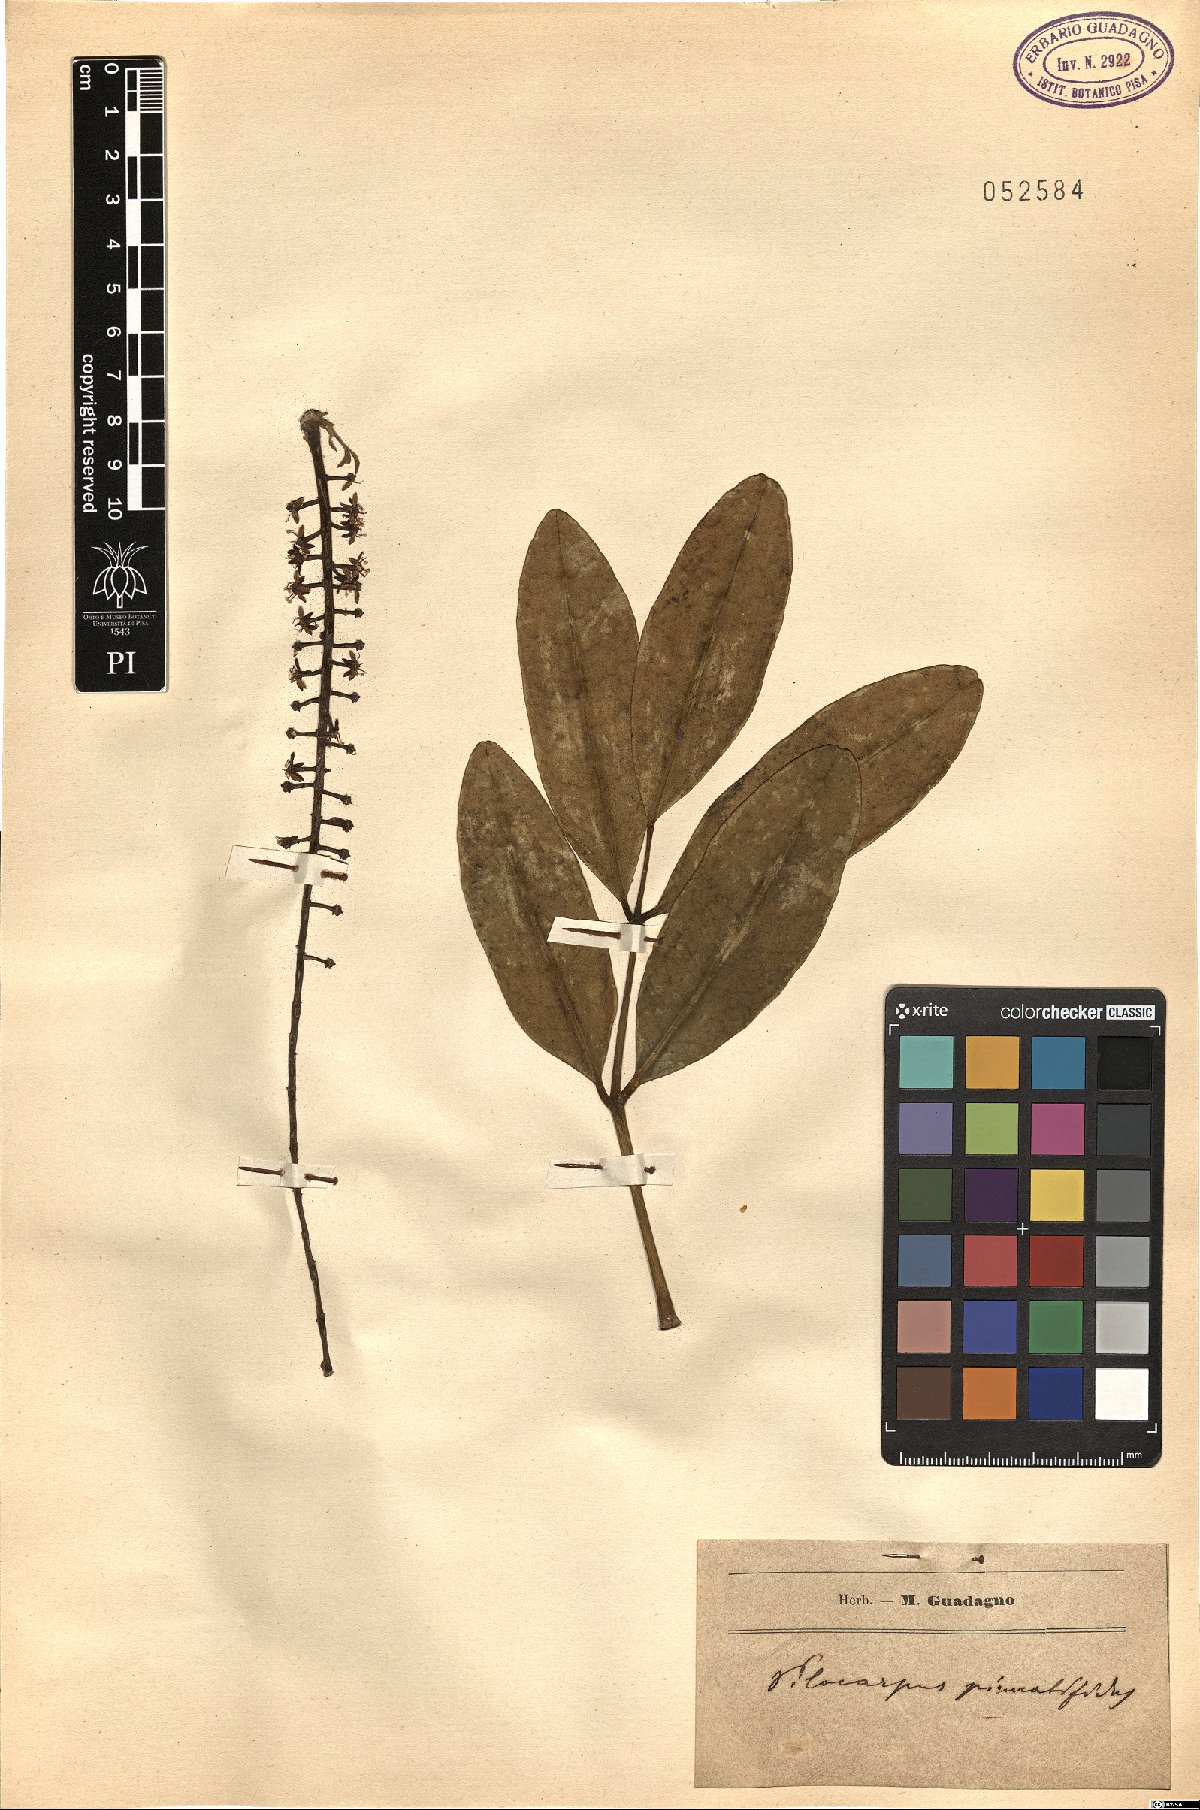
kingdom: Plantae
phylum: Tracheophyta
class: Magnoliopsida
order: Sapindales
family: Rutaceae
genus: Pilocarpus
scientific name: Pilocarpus pennatifolius
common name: Paraguay jaborandi
